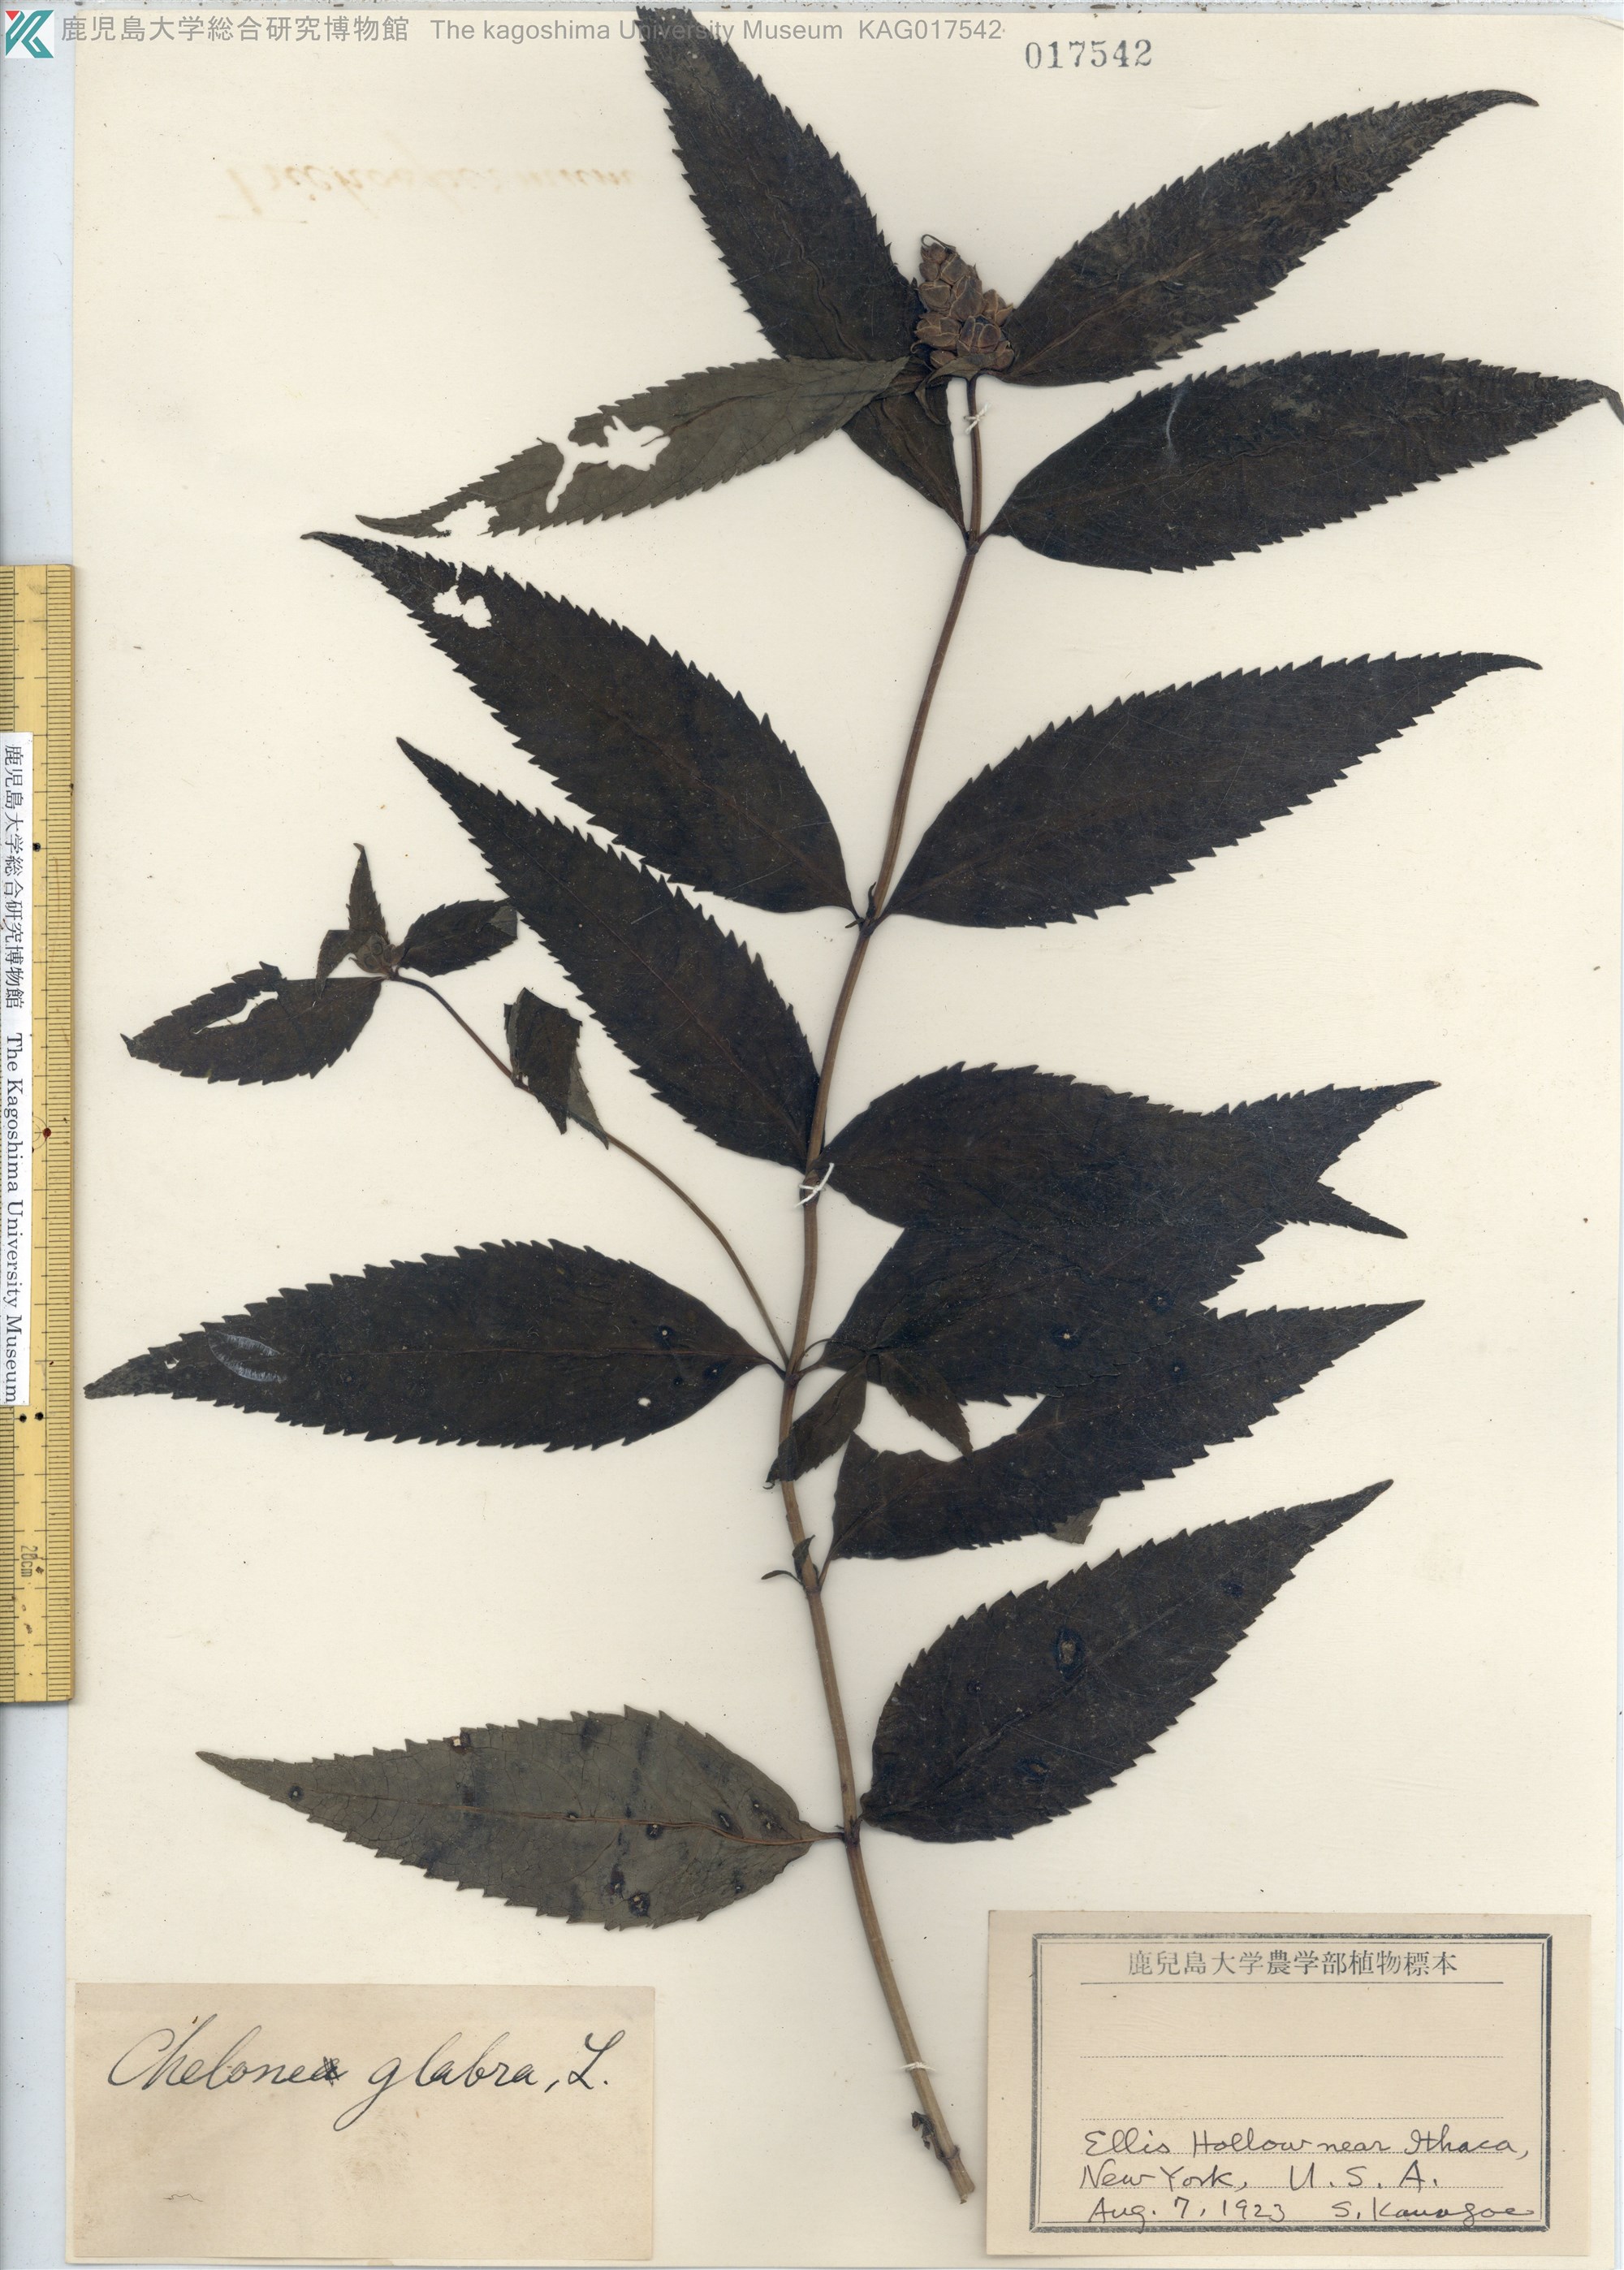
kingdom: Plantae
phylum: Tracheophyta
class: Magnoliopsida
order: Lamiales
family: Plantaginaceae
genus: Chelone
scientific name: Chelone glabra
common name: Snakehead
